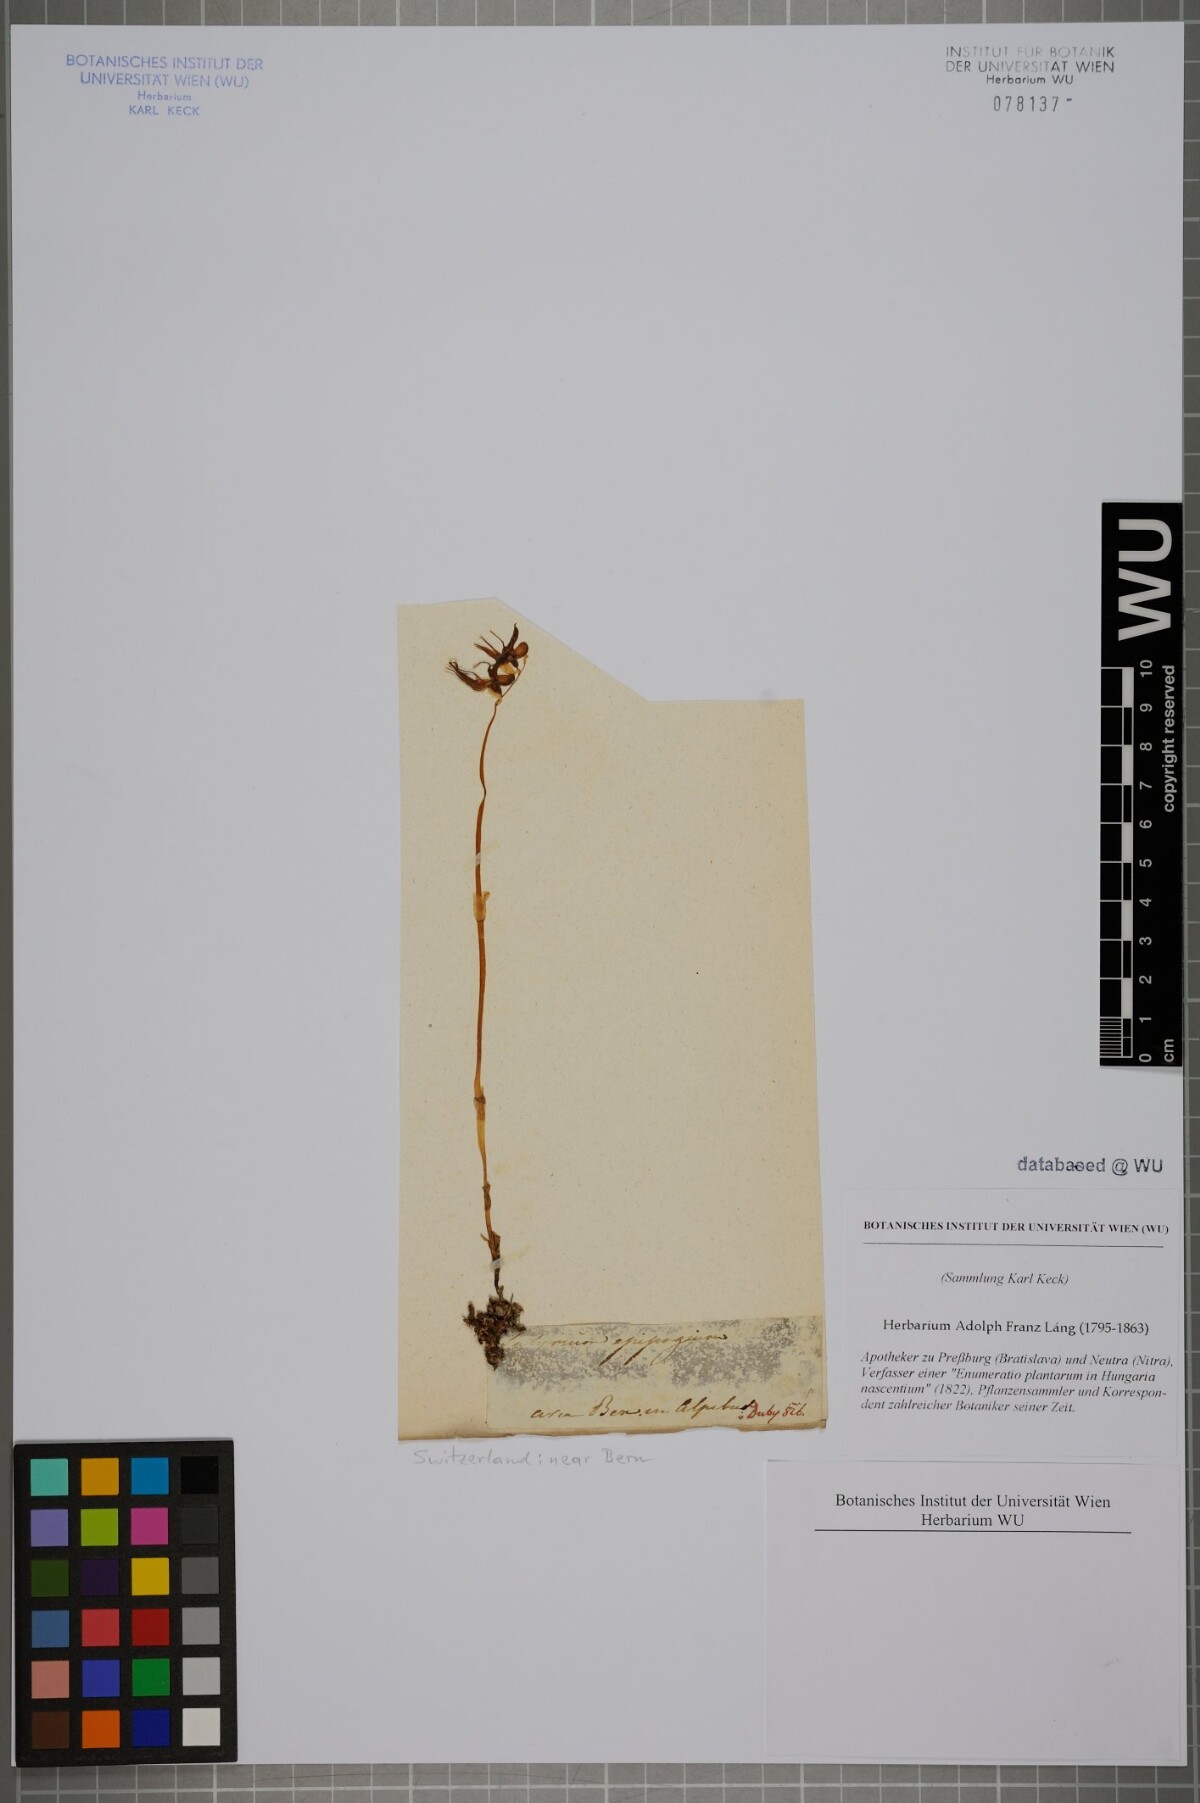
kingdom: Plantae
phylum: Tracheophyta
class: Liliopsida
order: Asparagales
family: Orchidaceae
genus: Epipogium
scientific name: Epipogium aphyllum
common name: Ghost orchid
